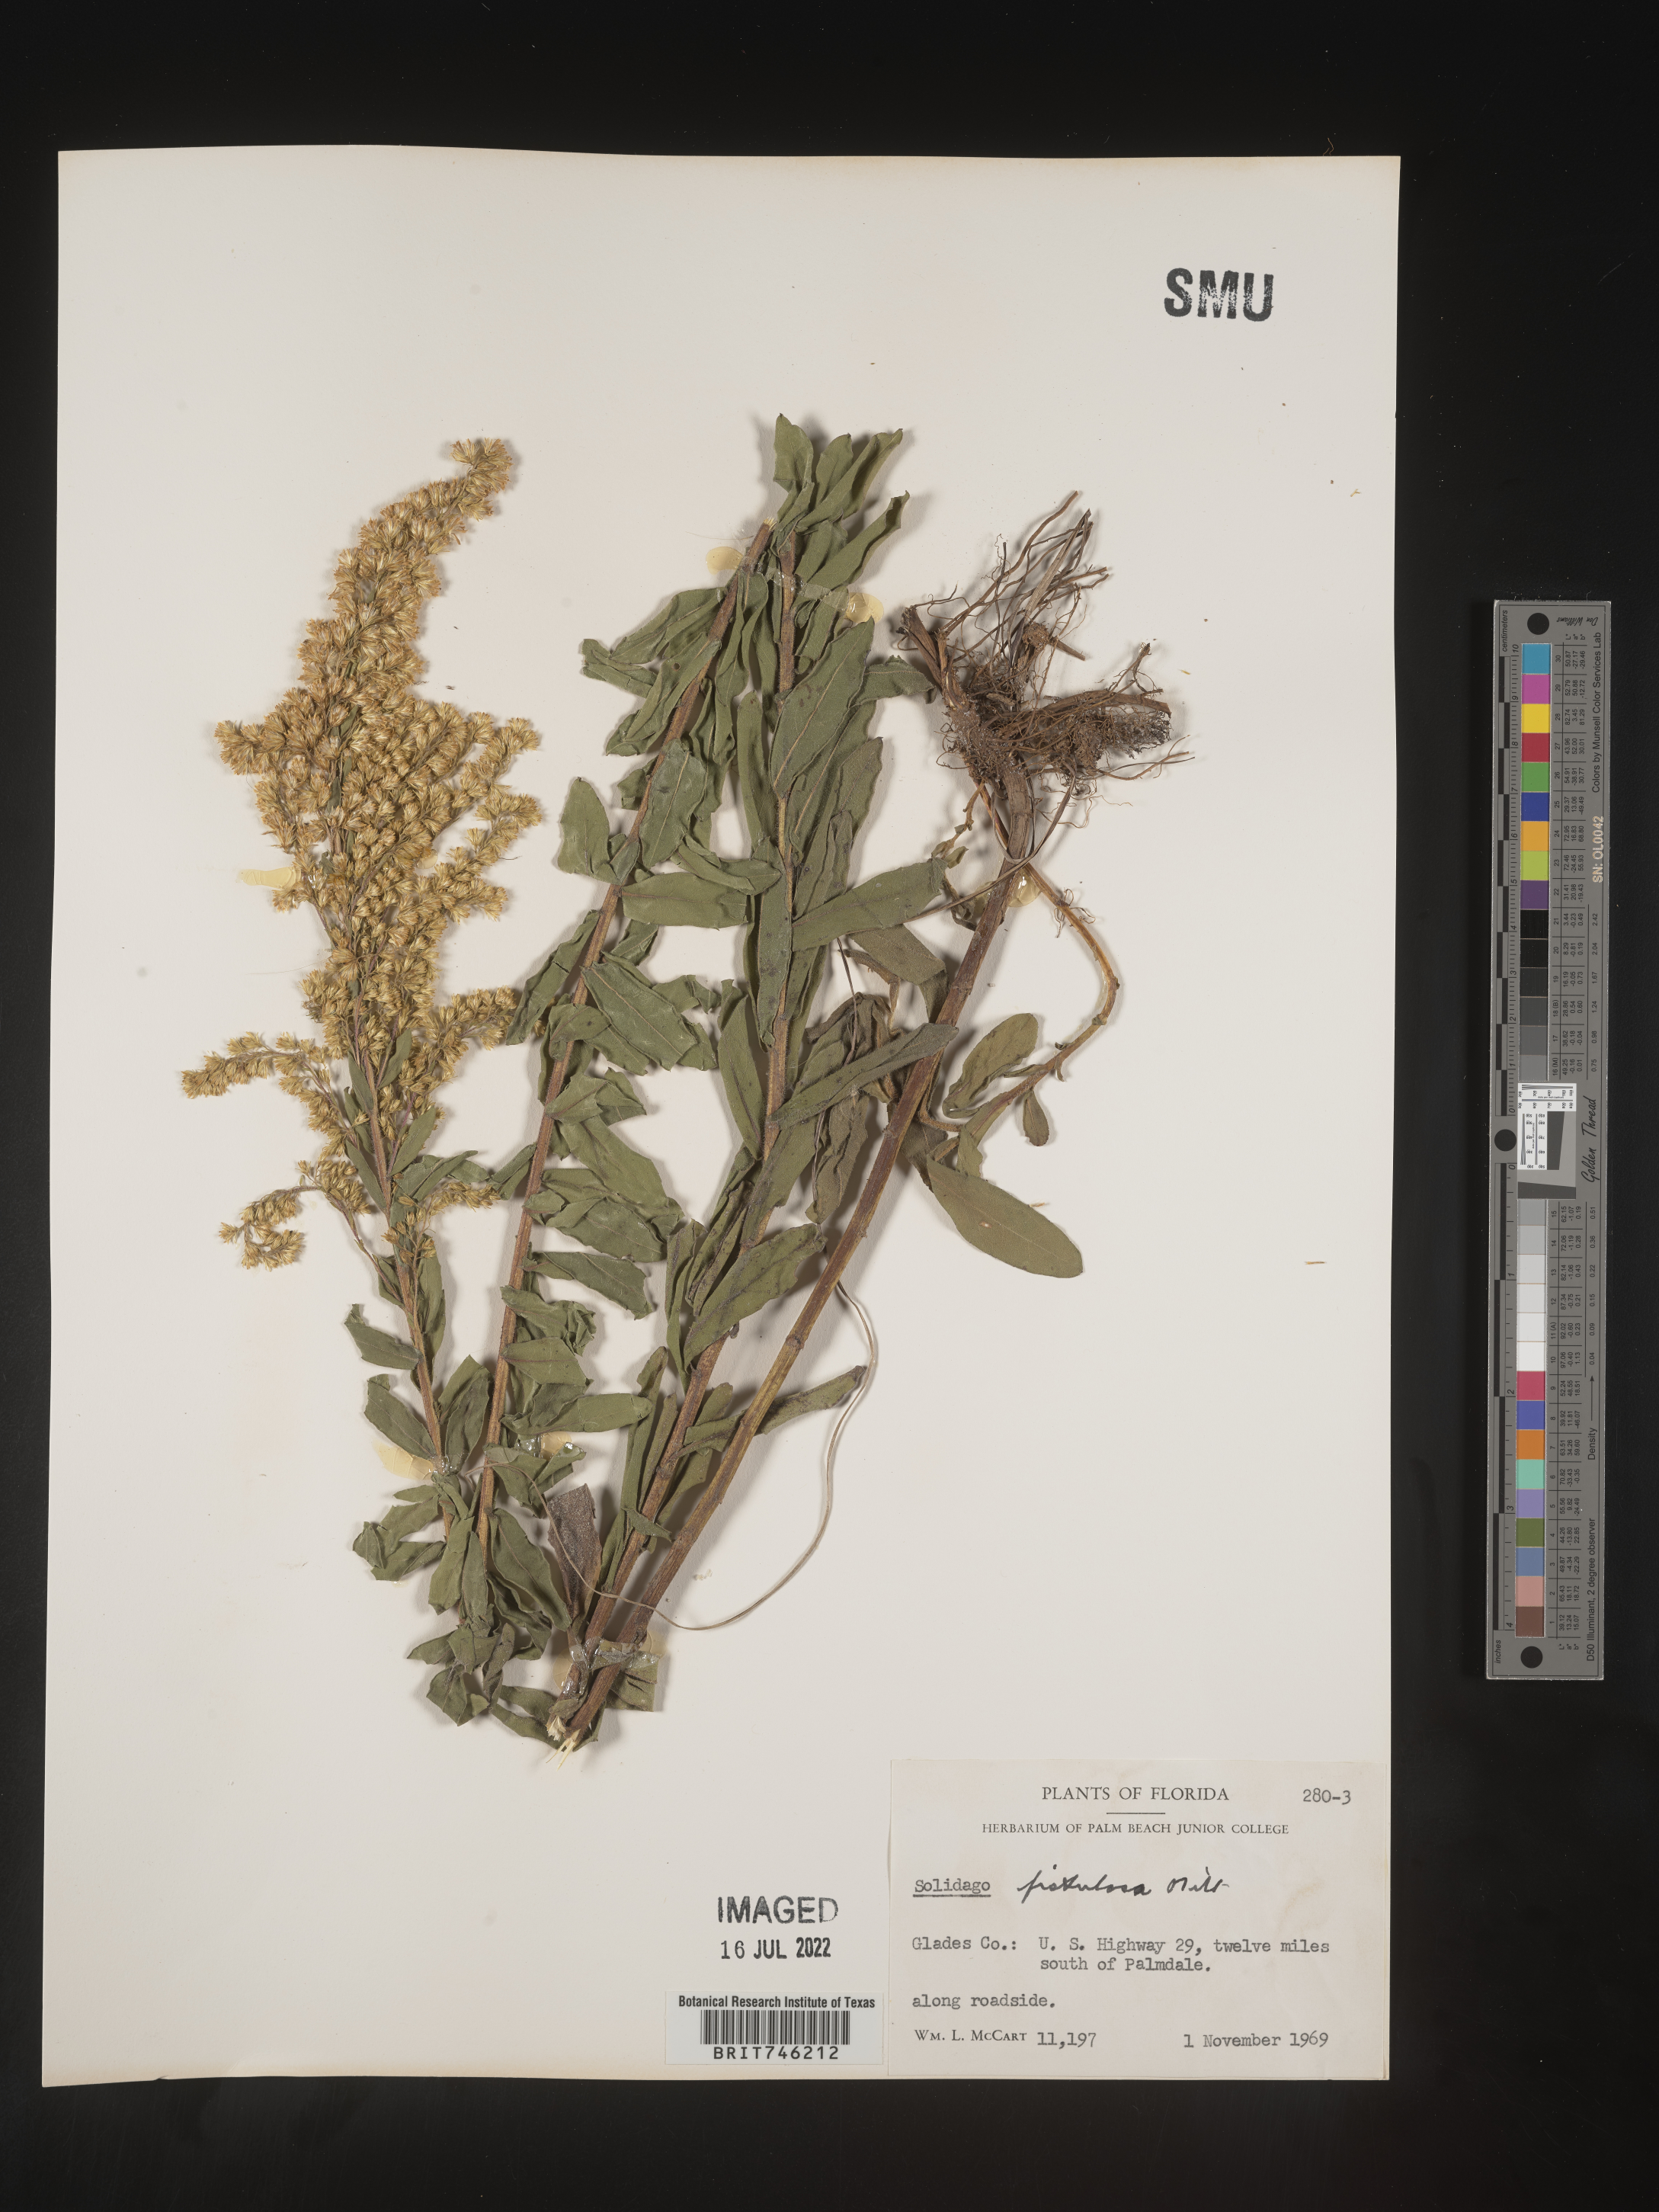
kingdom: Plantae
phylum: Tracheophyta
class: Magnoliopsida
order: Asterales
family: Asteraceae
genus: Solidago
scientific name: Solidago fistulosa
